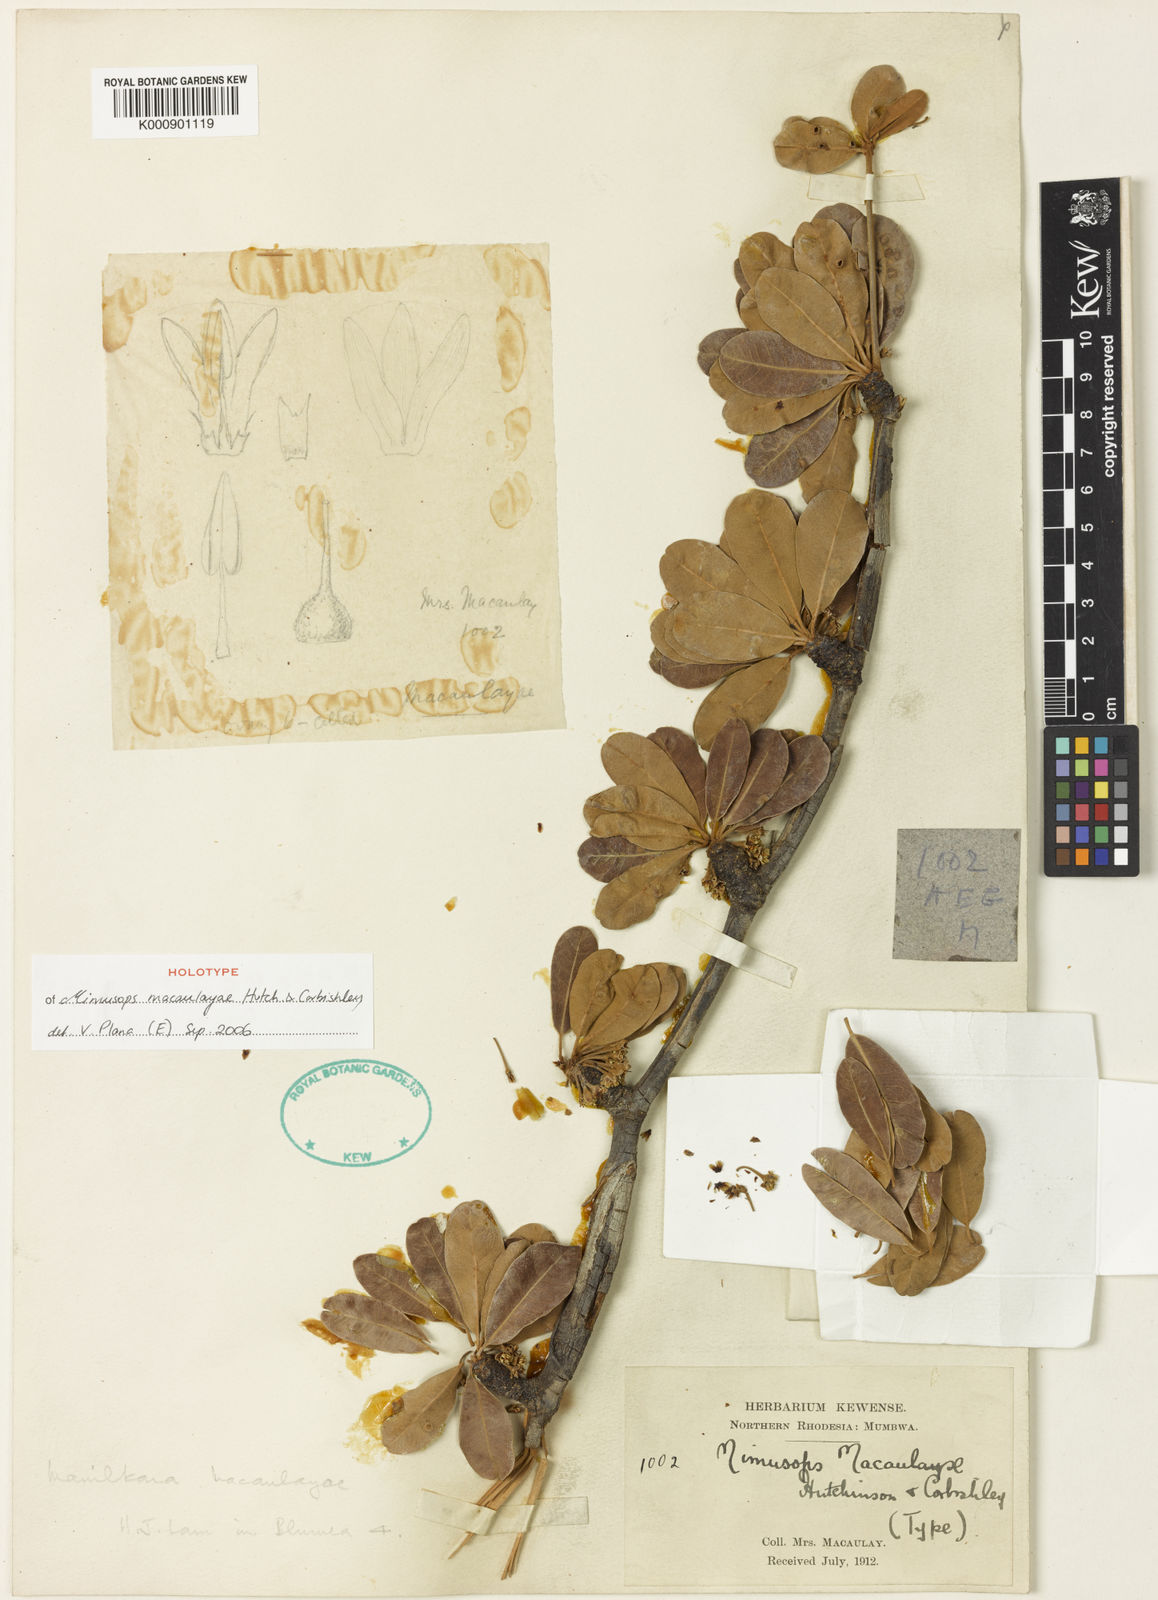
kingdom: Plantae
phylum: Tracheophyta
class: Magnoliopsida
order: Ericales
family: Sapotaceae
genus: Manilkara
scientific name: Manilkara mochisia
